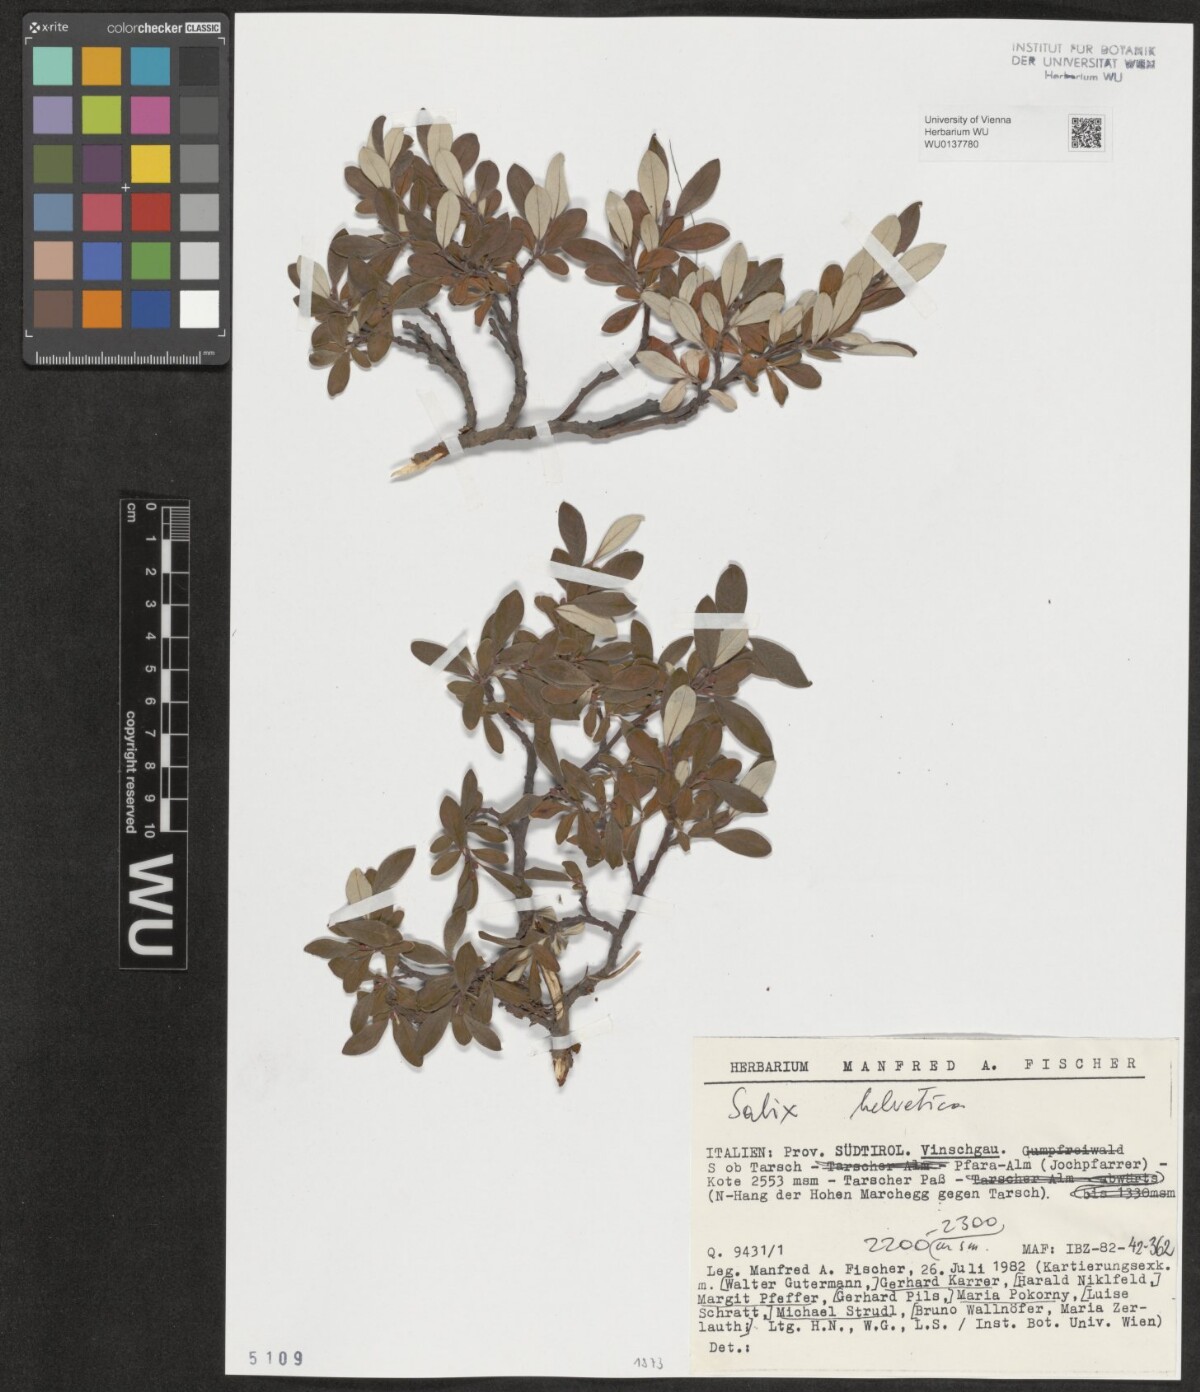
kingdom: Plantae
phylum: Tracheophyta
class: Magnoliopsida
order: Malpighiales
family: Salicaceae
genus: Salix
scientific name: Salix helvetica
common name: Swiss willow
